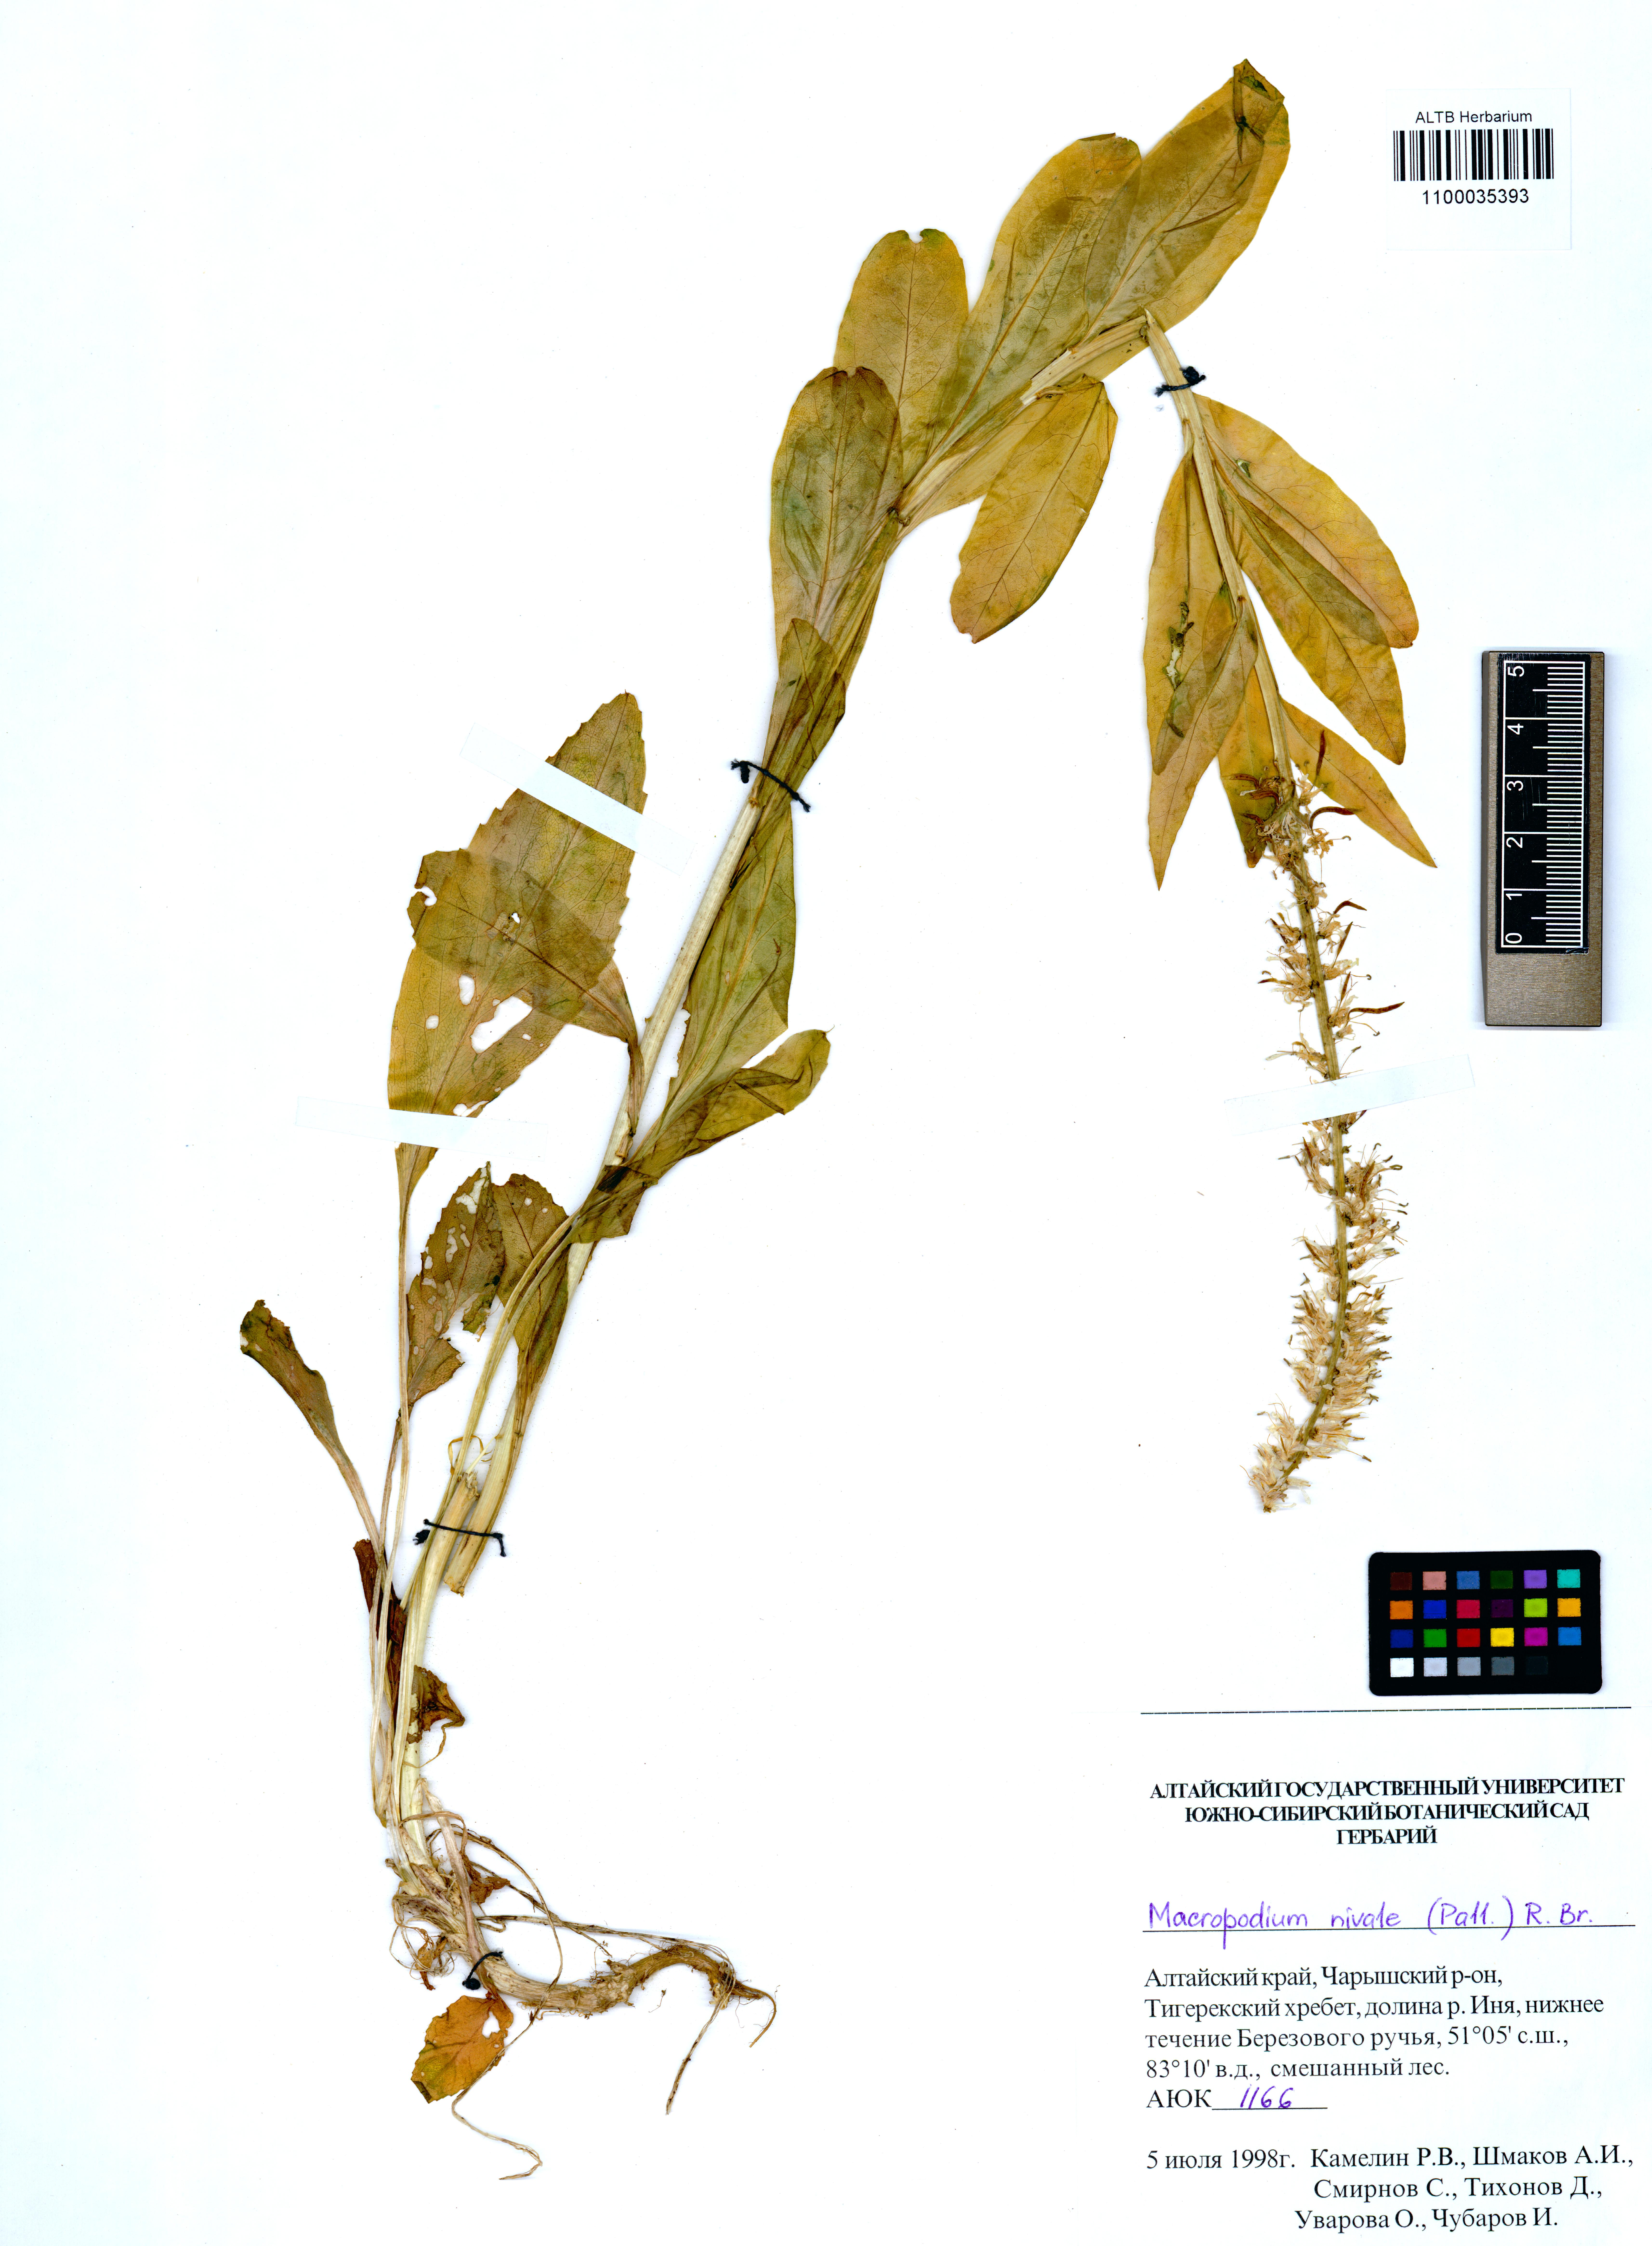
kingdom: Plantae
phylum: Tracheophyta
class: Magnoliopsida
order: Brassicales
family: Brassicaceae
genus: Macropodium
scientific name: Macropodium nivale
